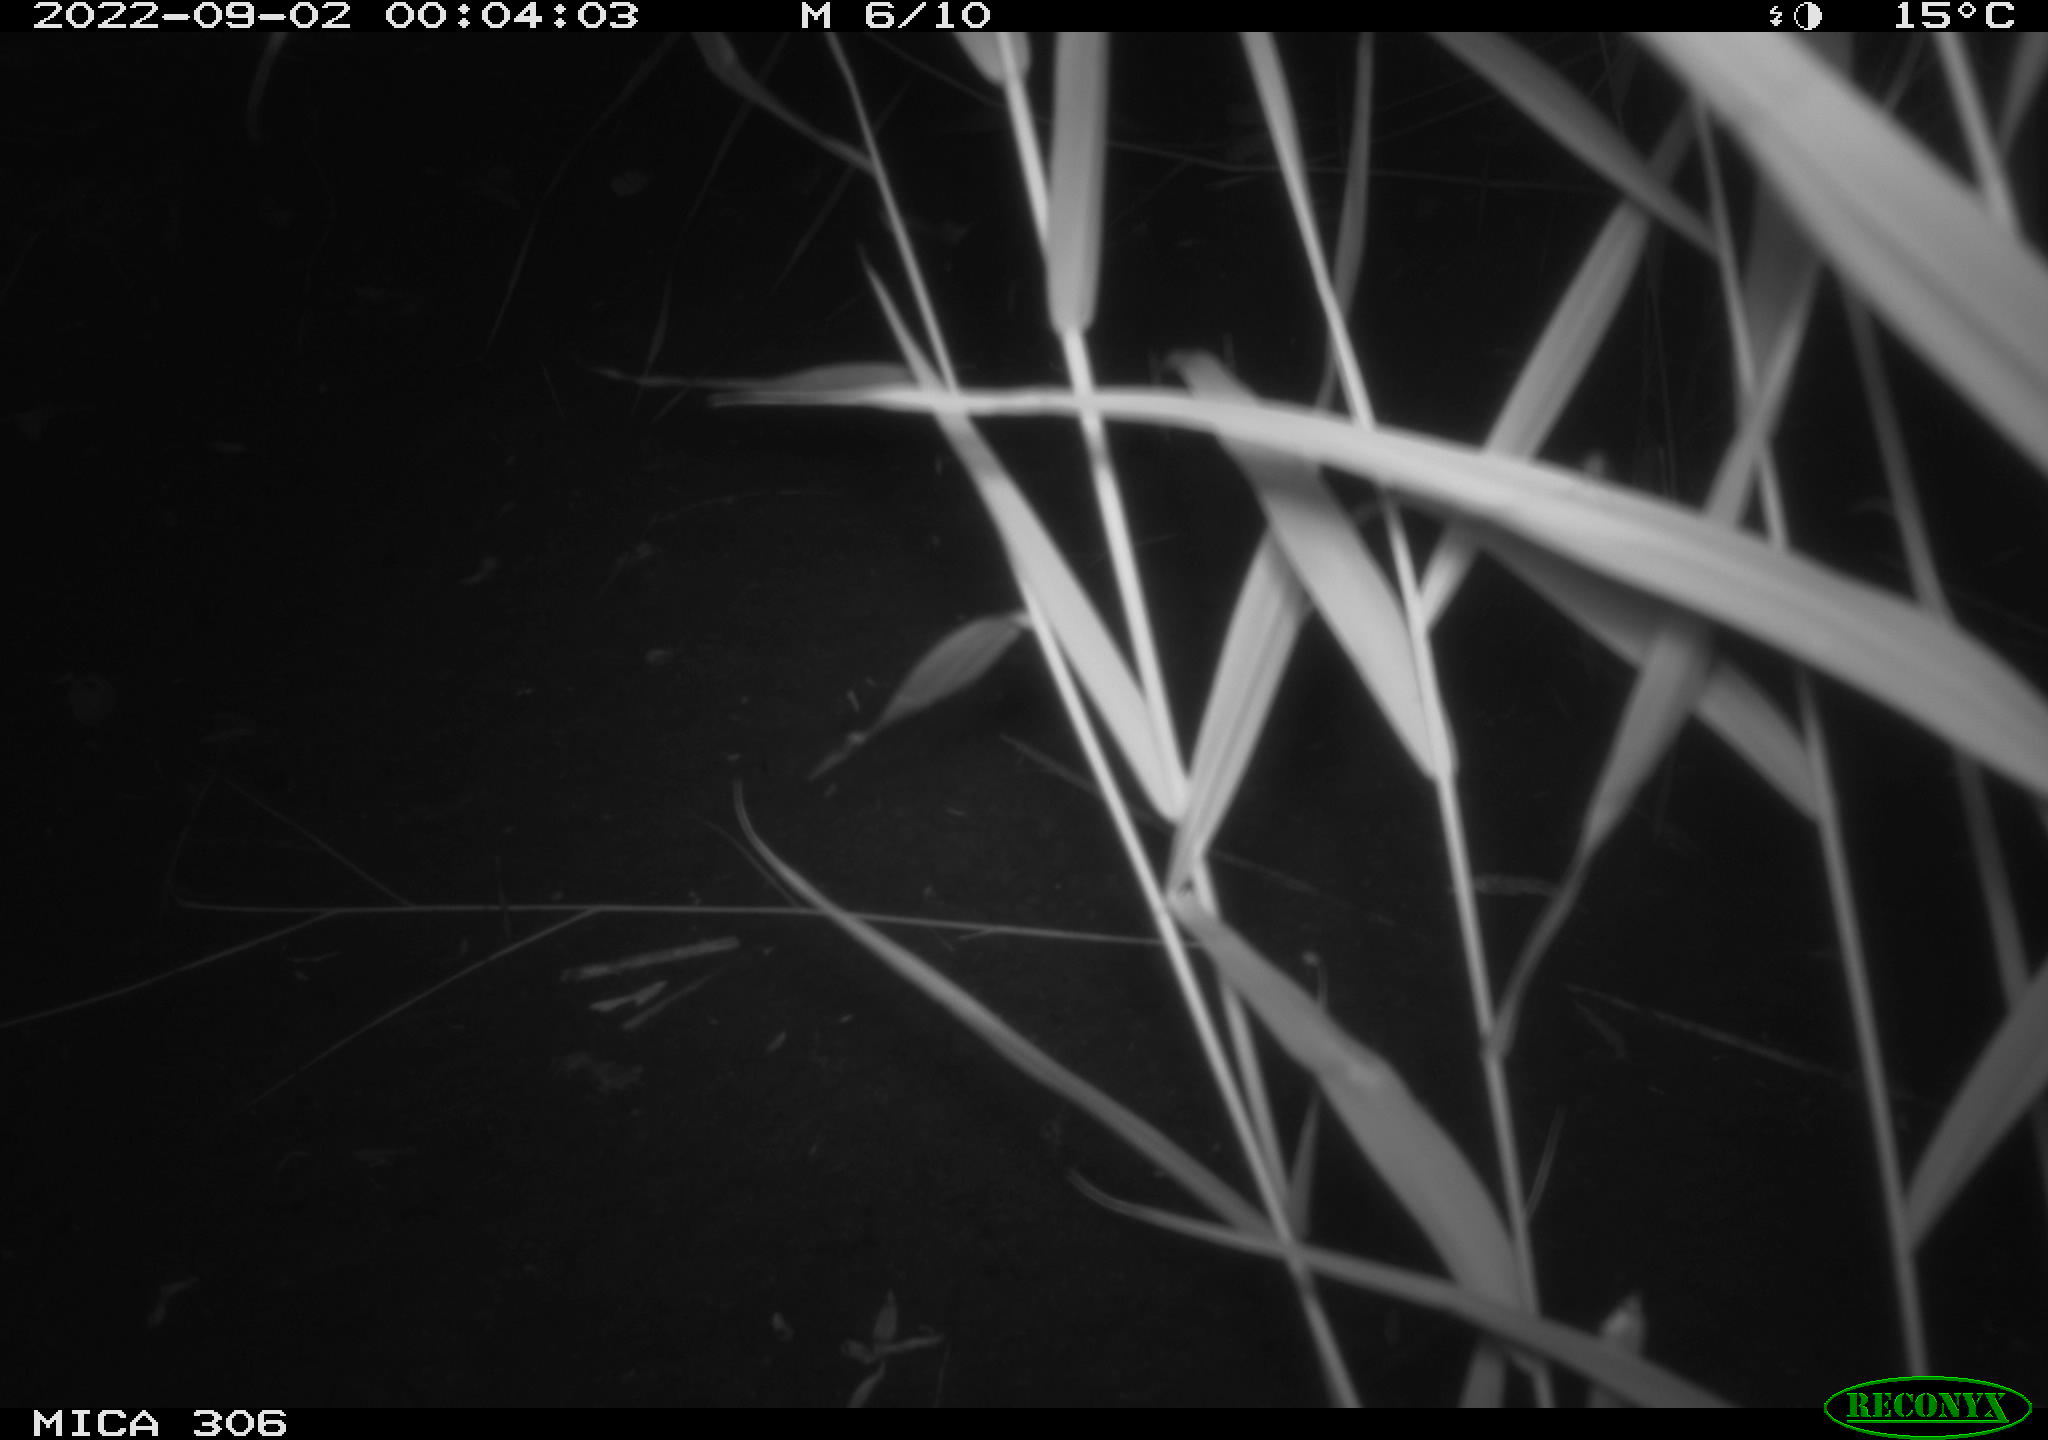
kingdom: Animalia
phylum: Chordata
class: Mammalia
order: Rodentia
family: Muridae
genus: Rattus
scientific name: Rattus norvegicus
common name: Brown rat
